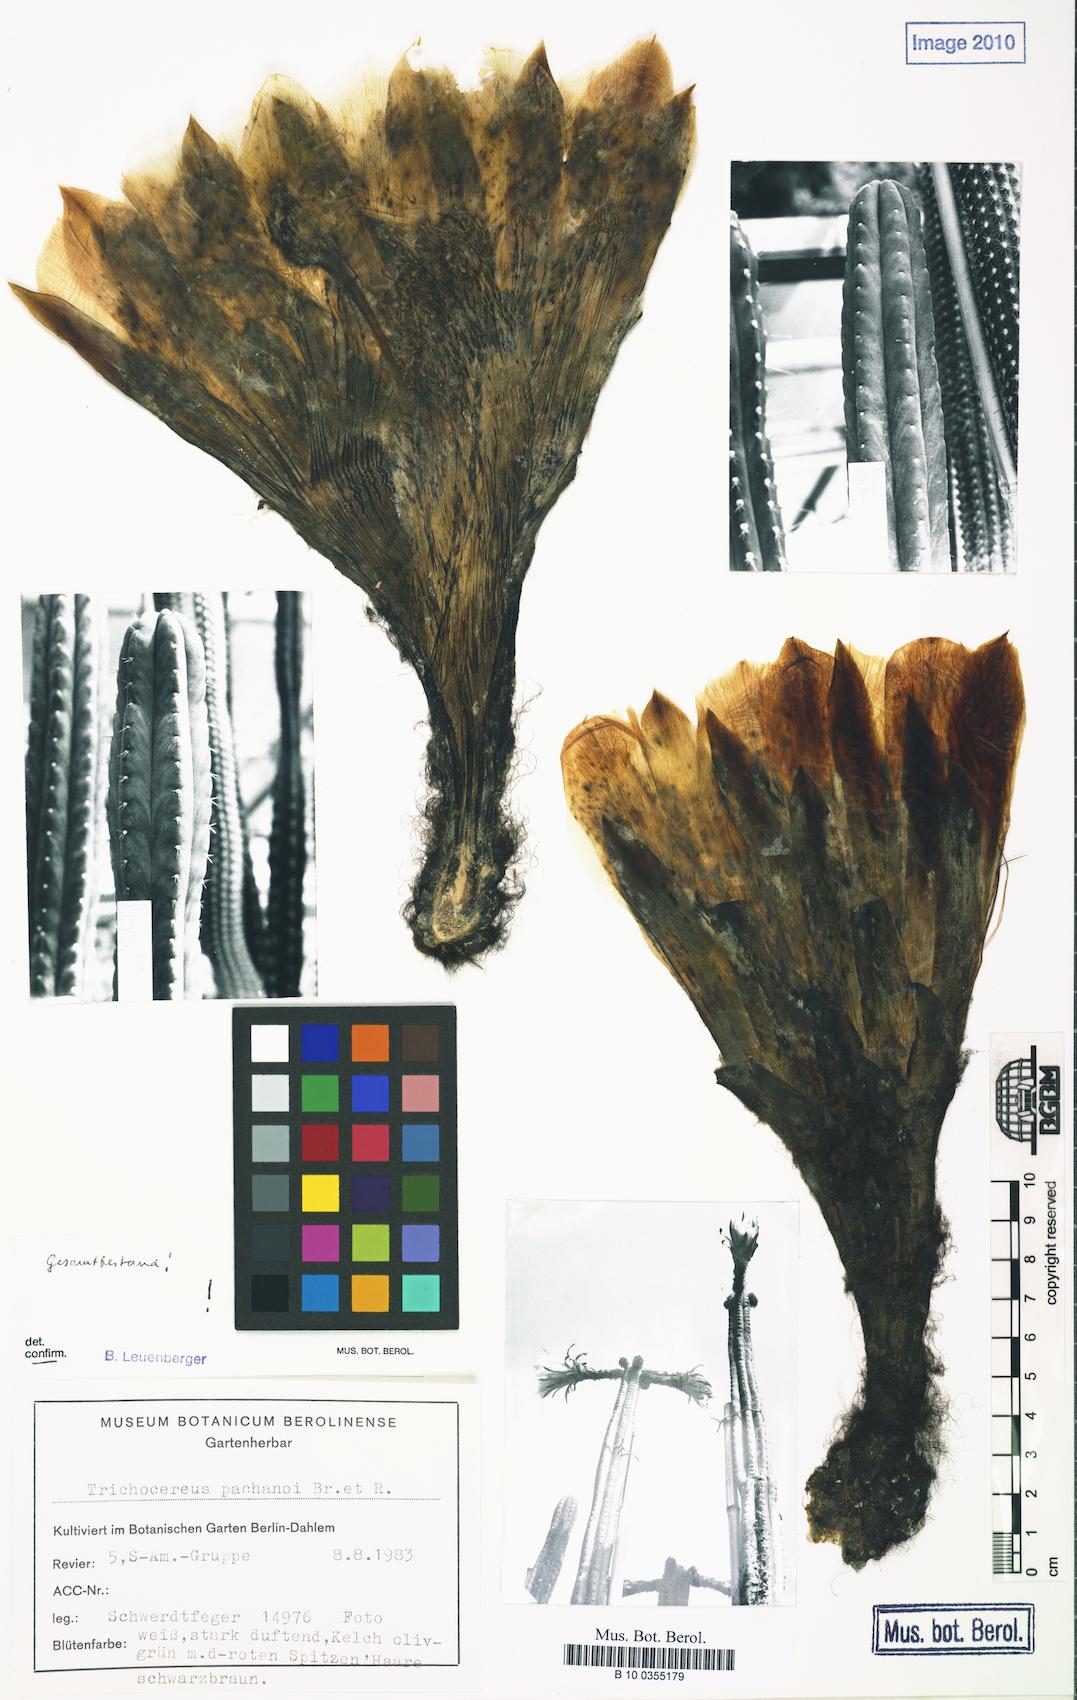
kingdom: Plantae
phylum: Tracheophyta
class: Magnoliopsida
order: Caryophyllales
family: Cactaceae
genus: Trichocereus
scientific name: Trichocereus macrogonus
